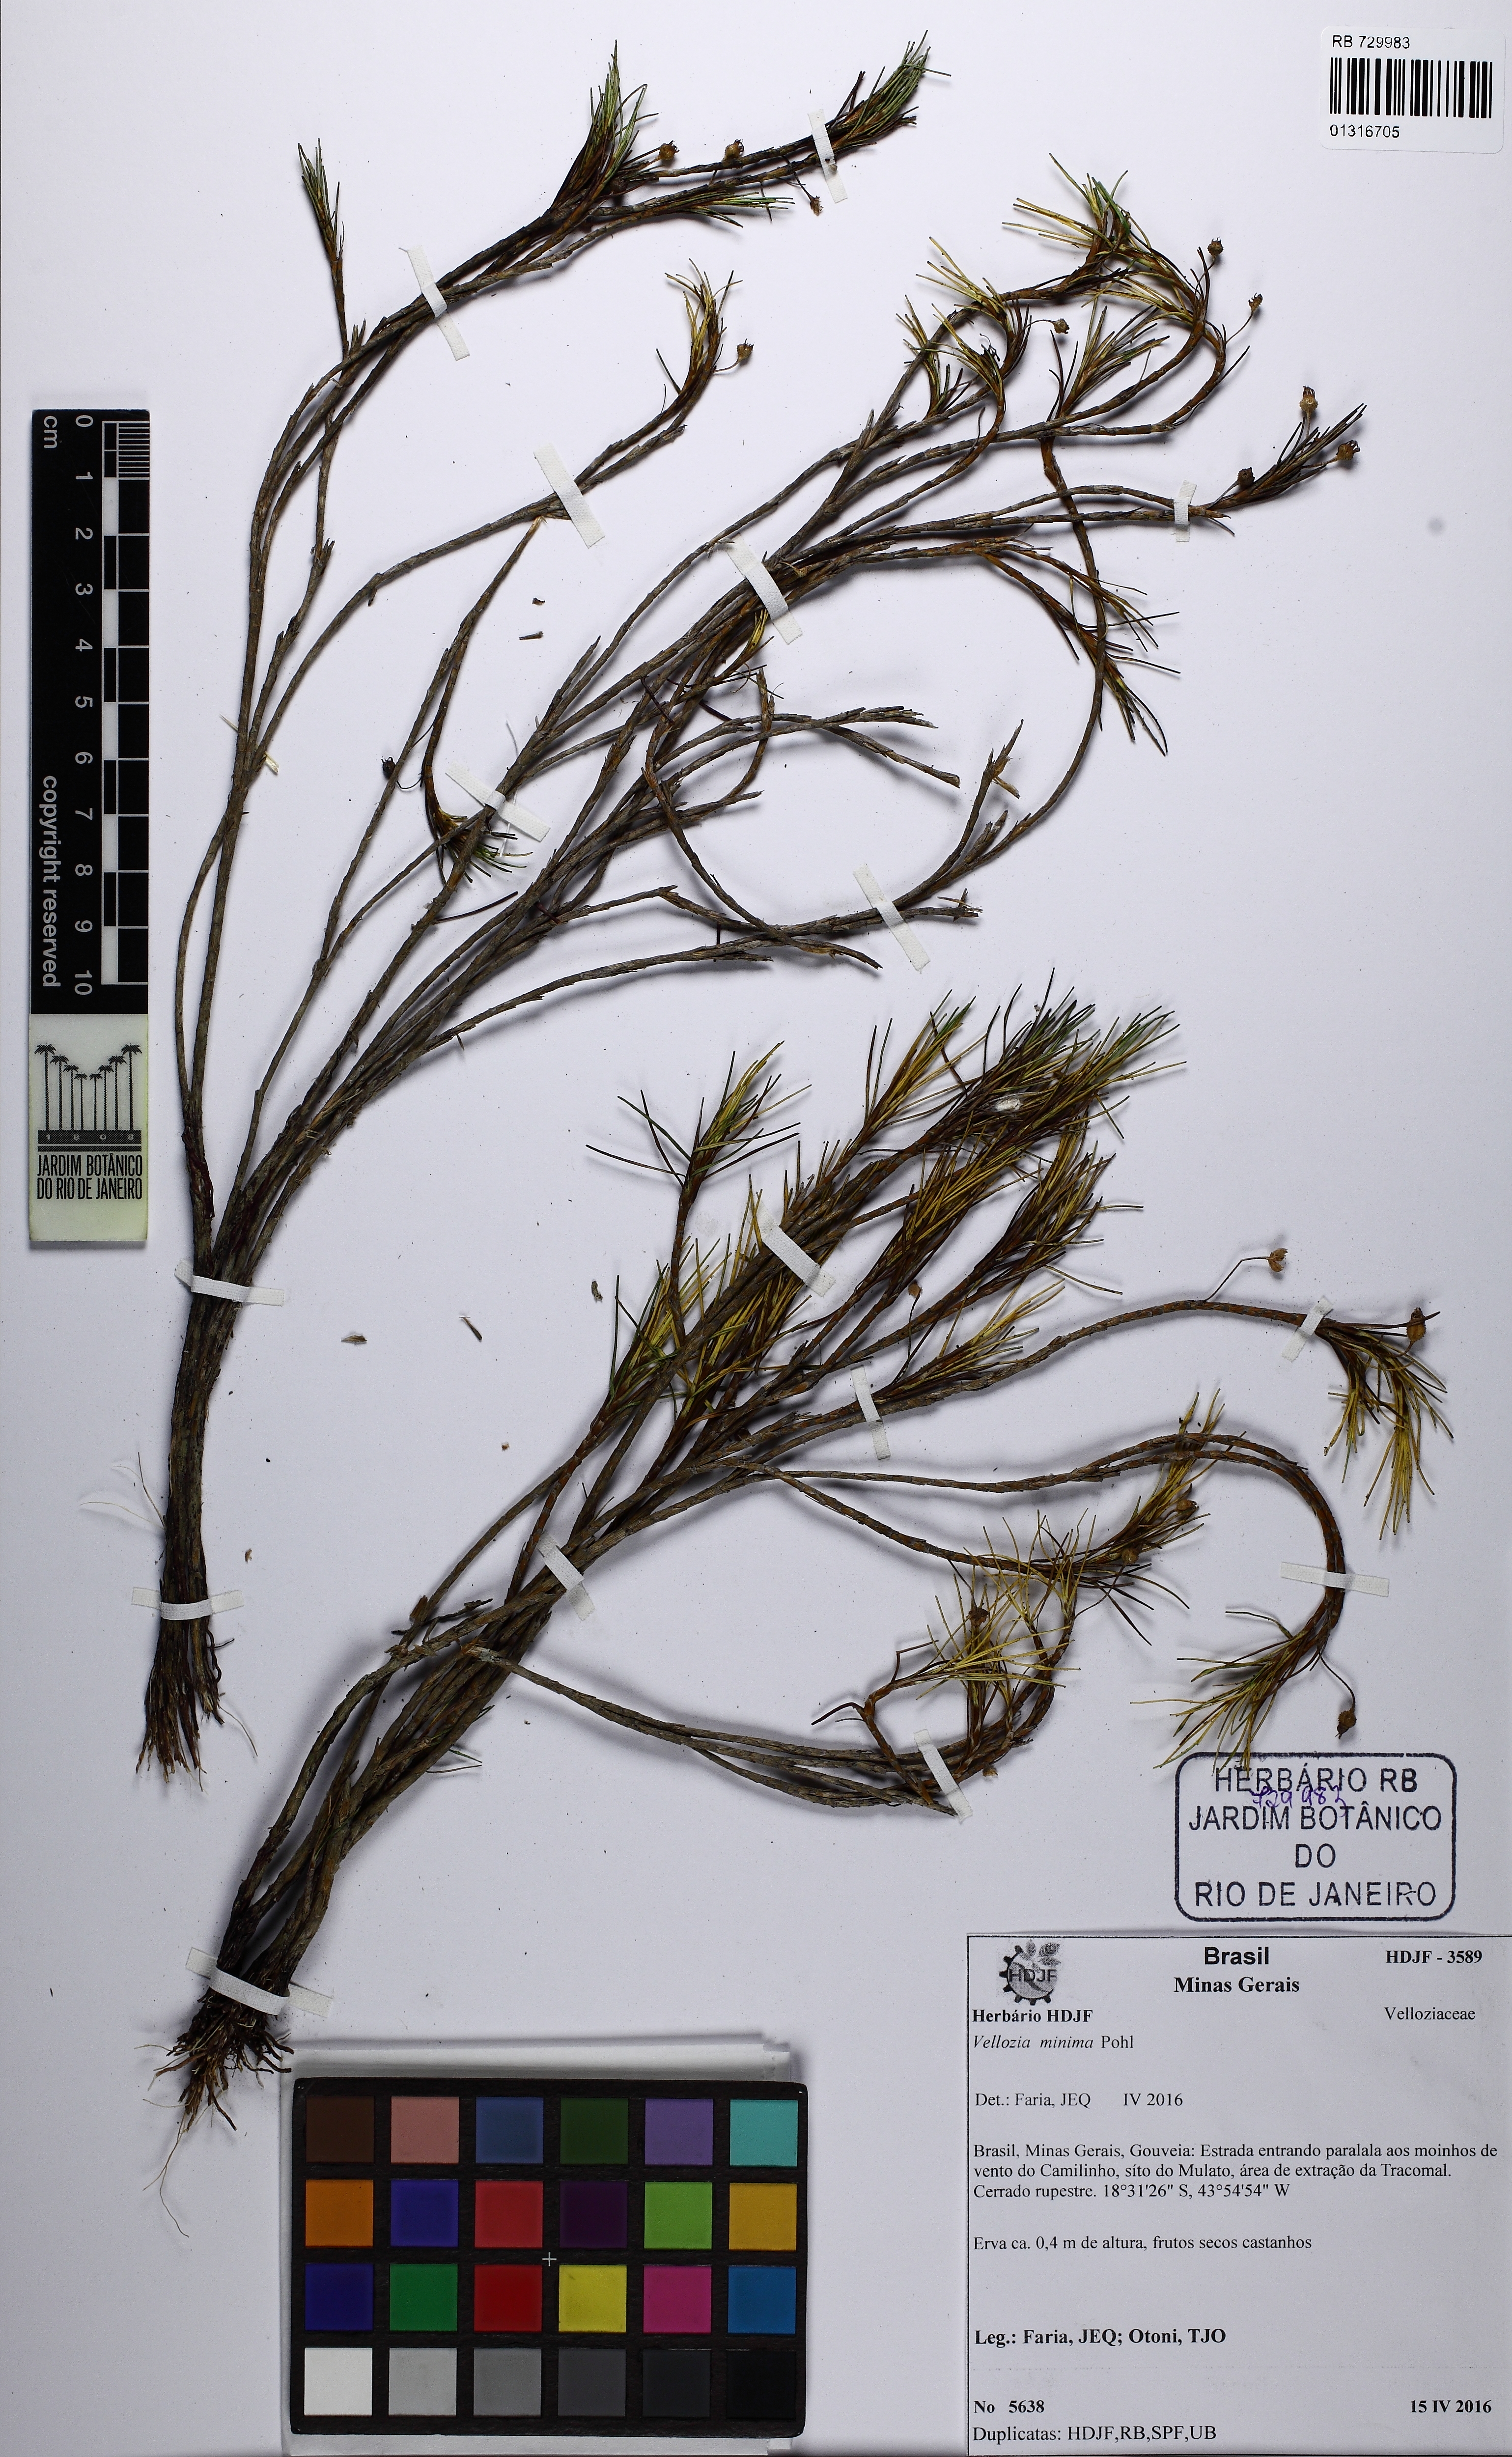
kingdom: Plantae
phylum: Tracheophyta
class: Liliopsida
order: Pandanales
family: Velloziaceae
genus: Vellozia
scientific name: Vellozia minima
